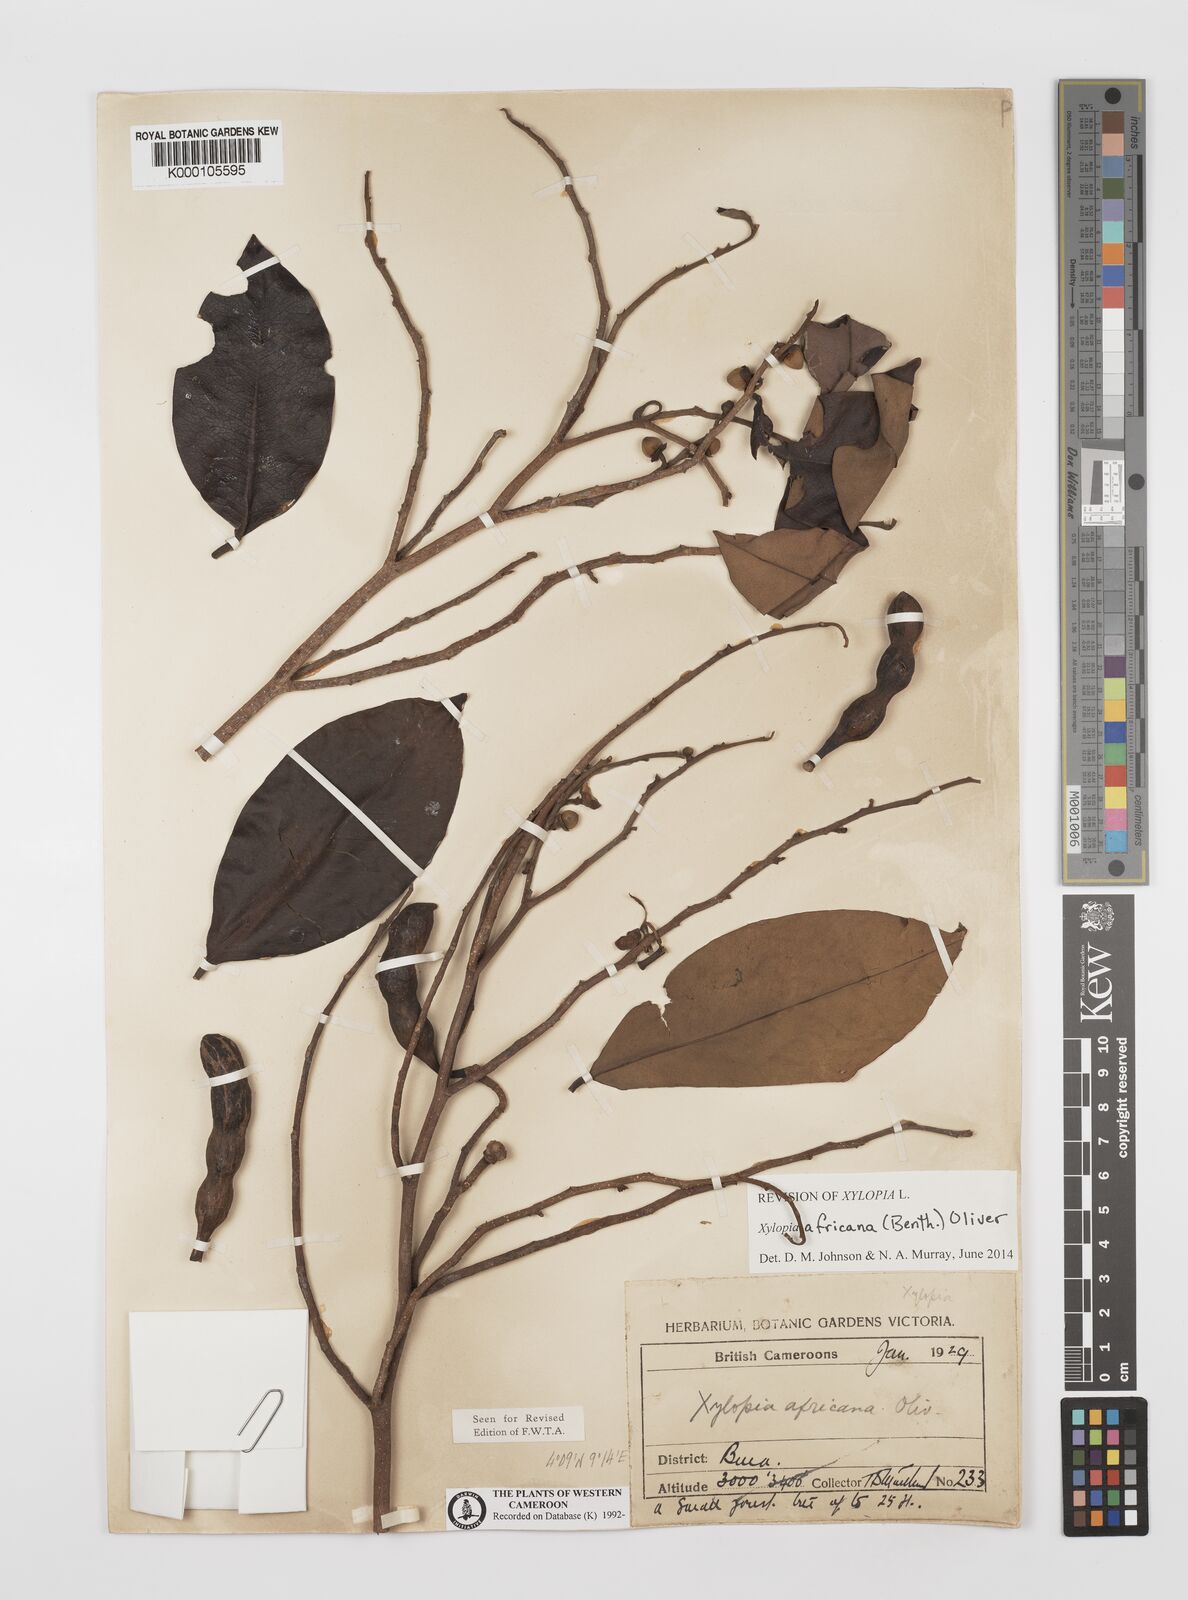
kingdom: Plantae
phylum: Tracheophyta
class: Magnoliopsida
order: Magnoliales
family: Annonaceae
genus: Xylopia
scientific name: Xylopia africana
